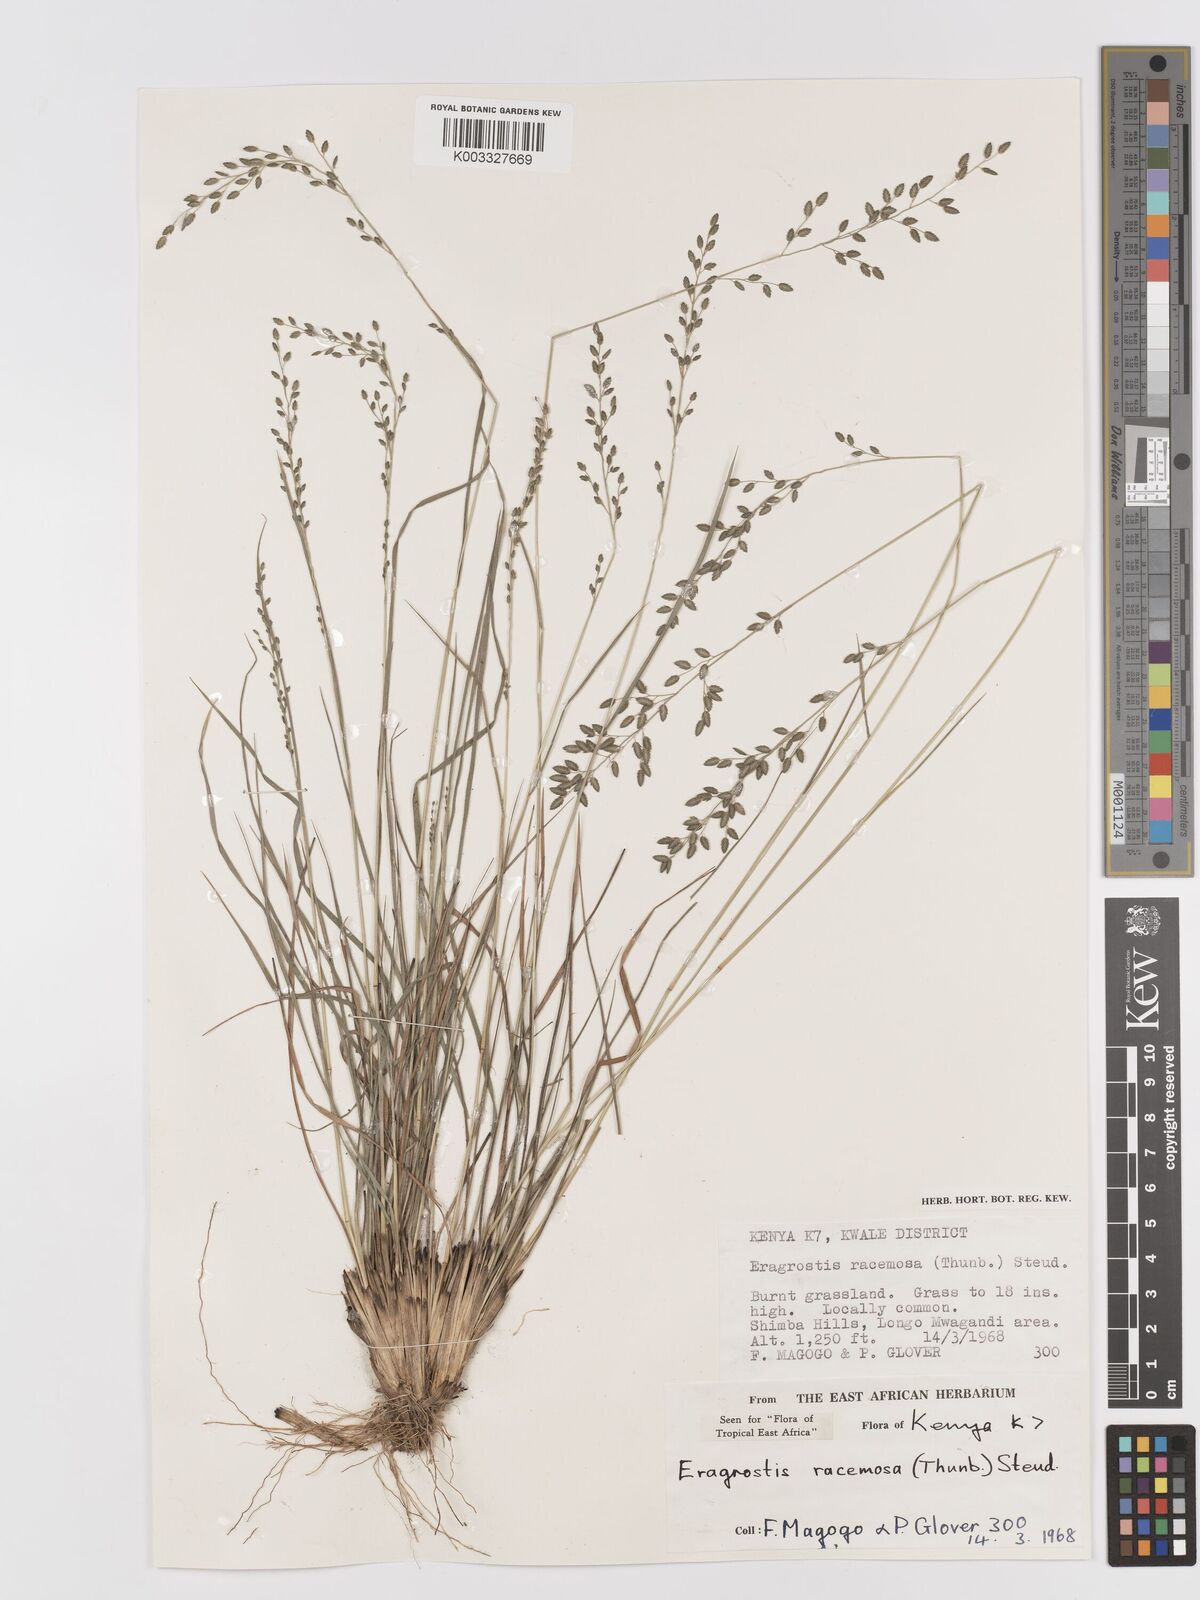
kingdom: Plantae
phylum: Tracheophyta
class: Liliopsida
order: Poales
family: Poaceae
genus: Eragrostis
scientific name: Eragrostis racemosa
